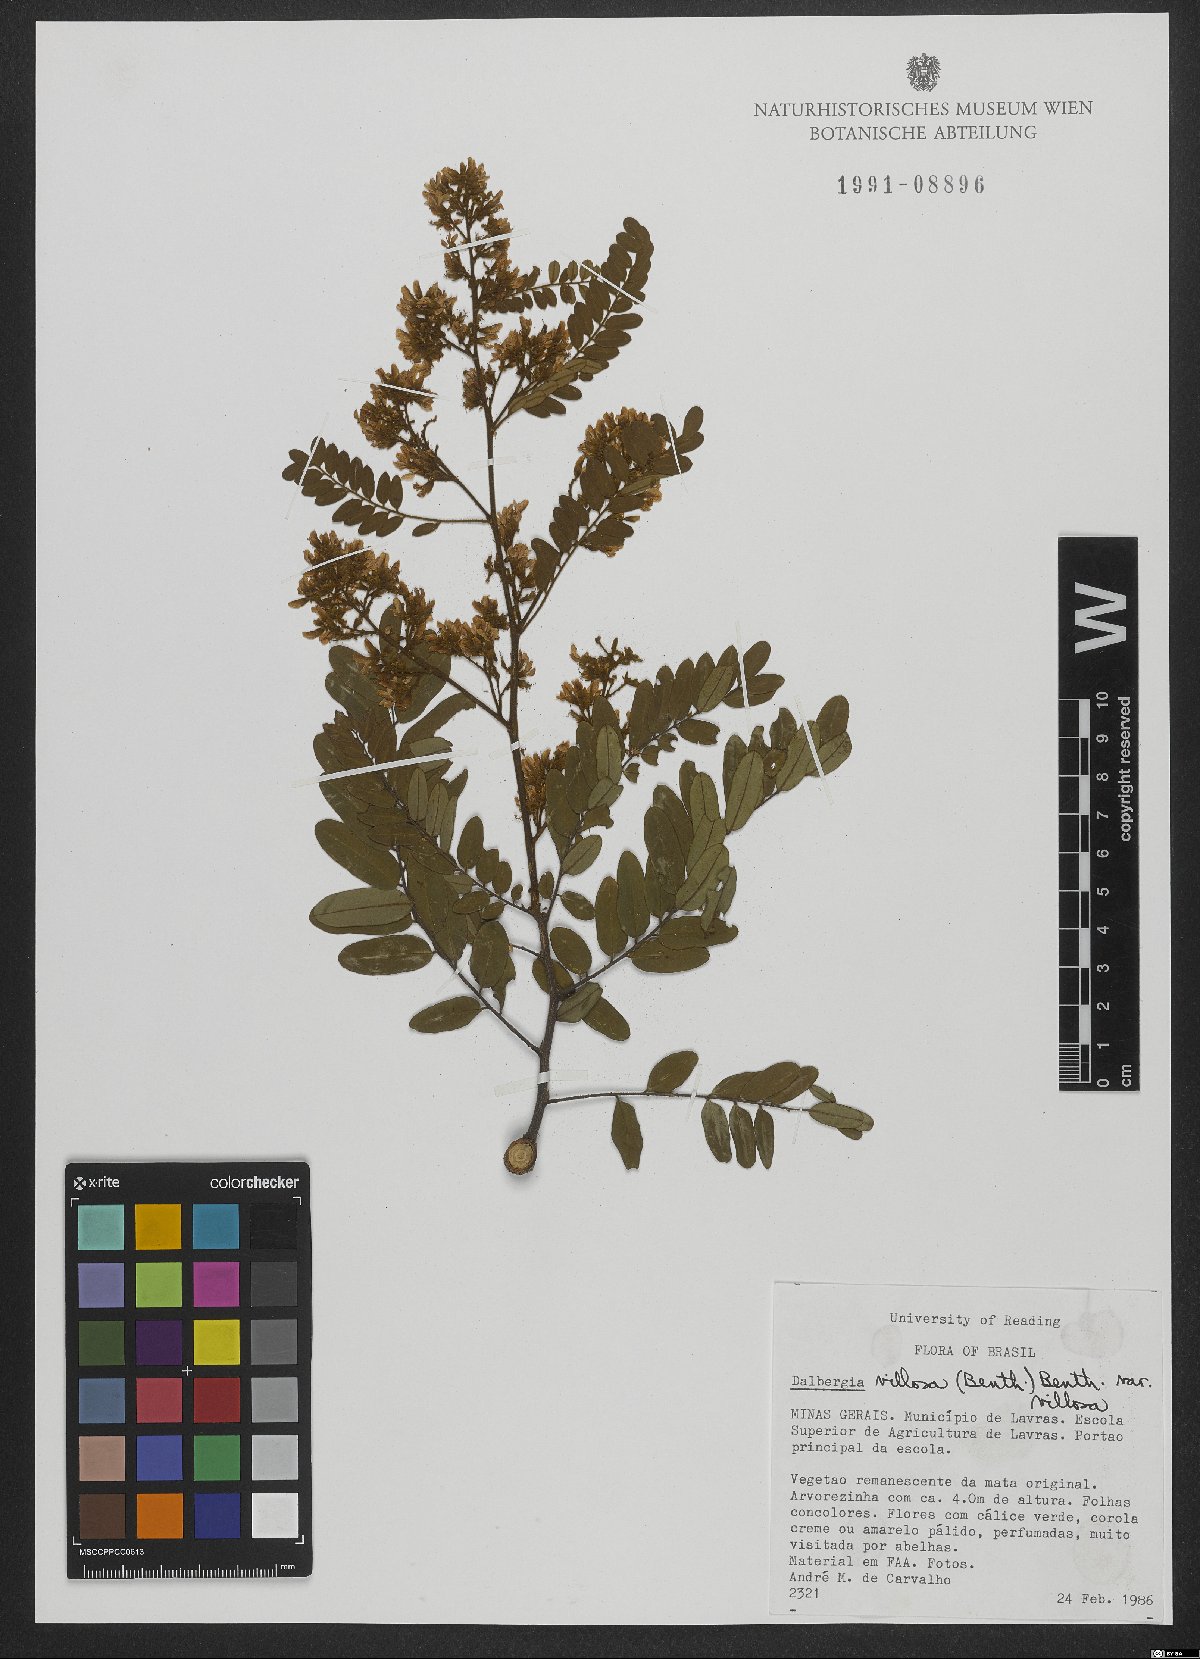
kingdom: Plantae
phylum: Tracheophyta
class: Magnoliopsida
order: Fabales
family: Fabaceae
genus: Dalbergia
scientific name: Dalbergia villosa
